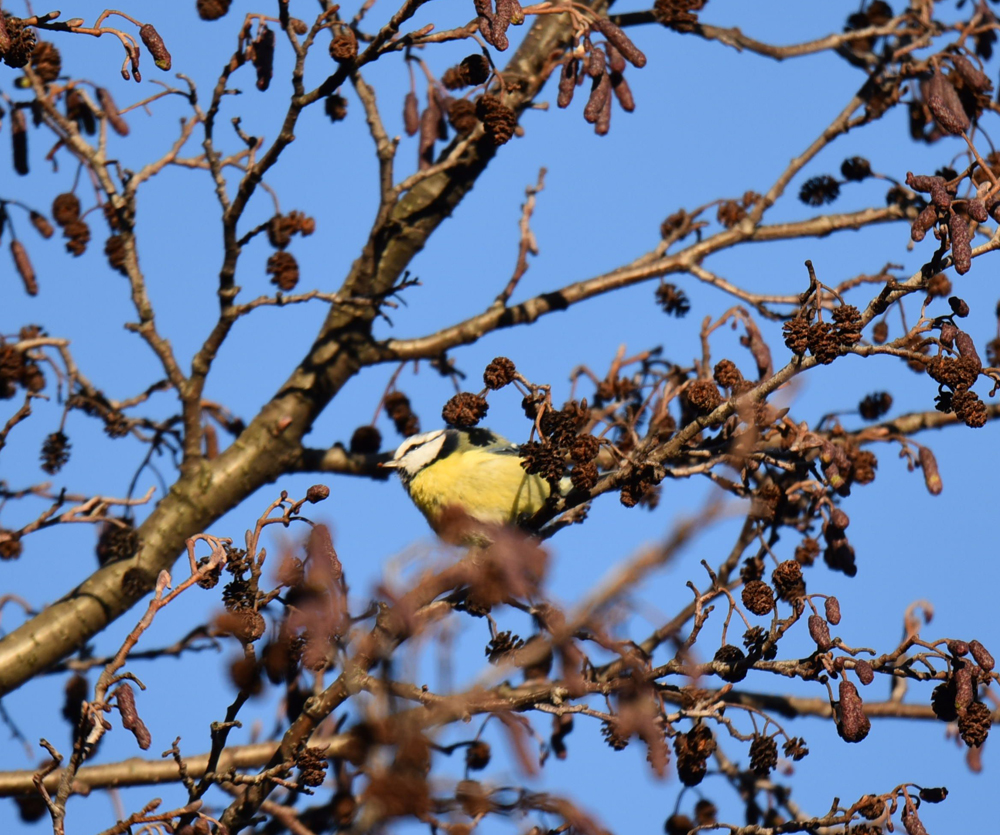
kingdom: Animalia
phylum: Chordata
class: Aves
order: Passeriformes
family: Paridae
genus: Cyanistes
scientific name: Cyanistes caeruleus
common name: Eurasian blue tit
